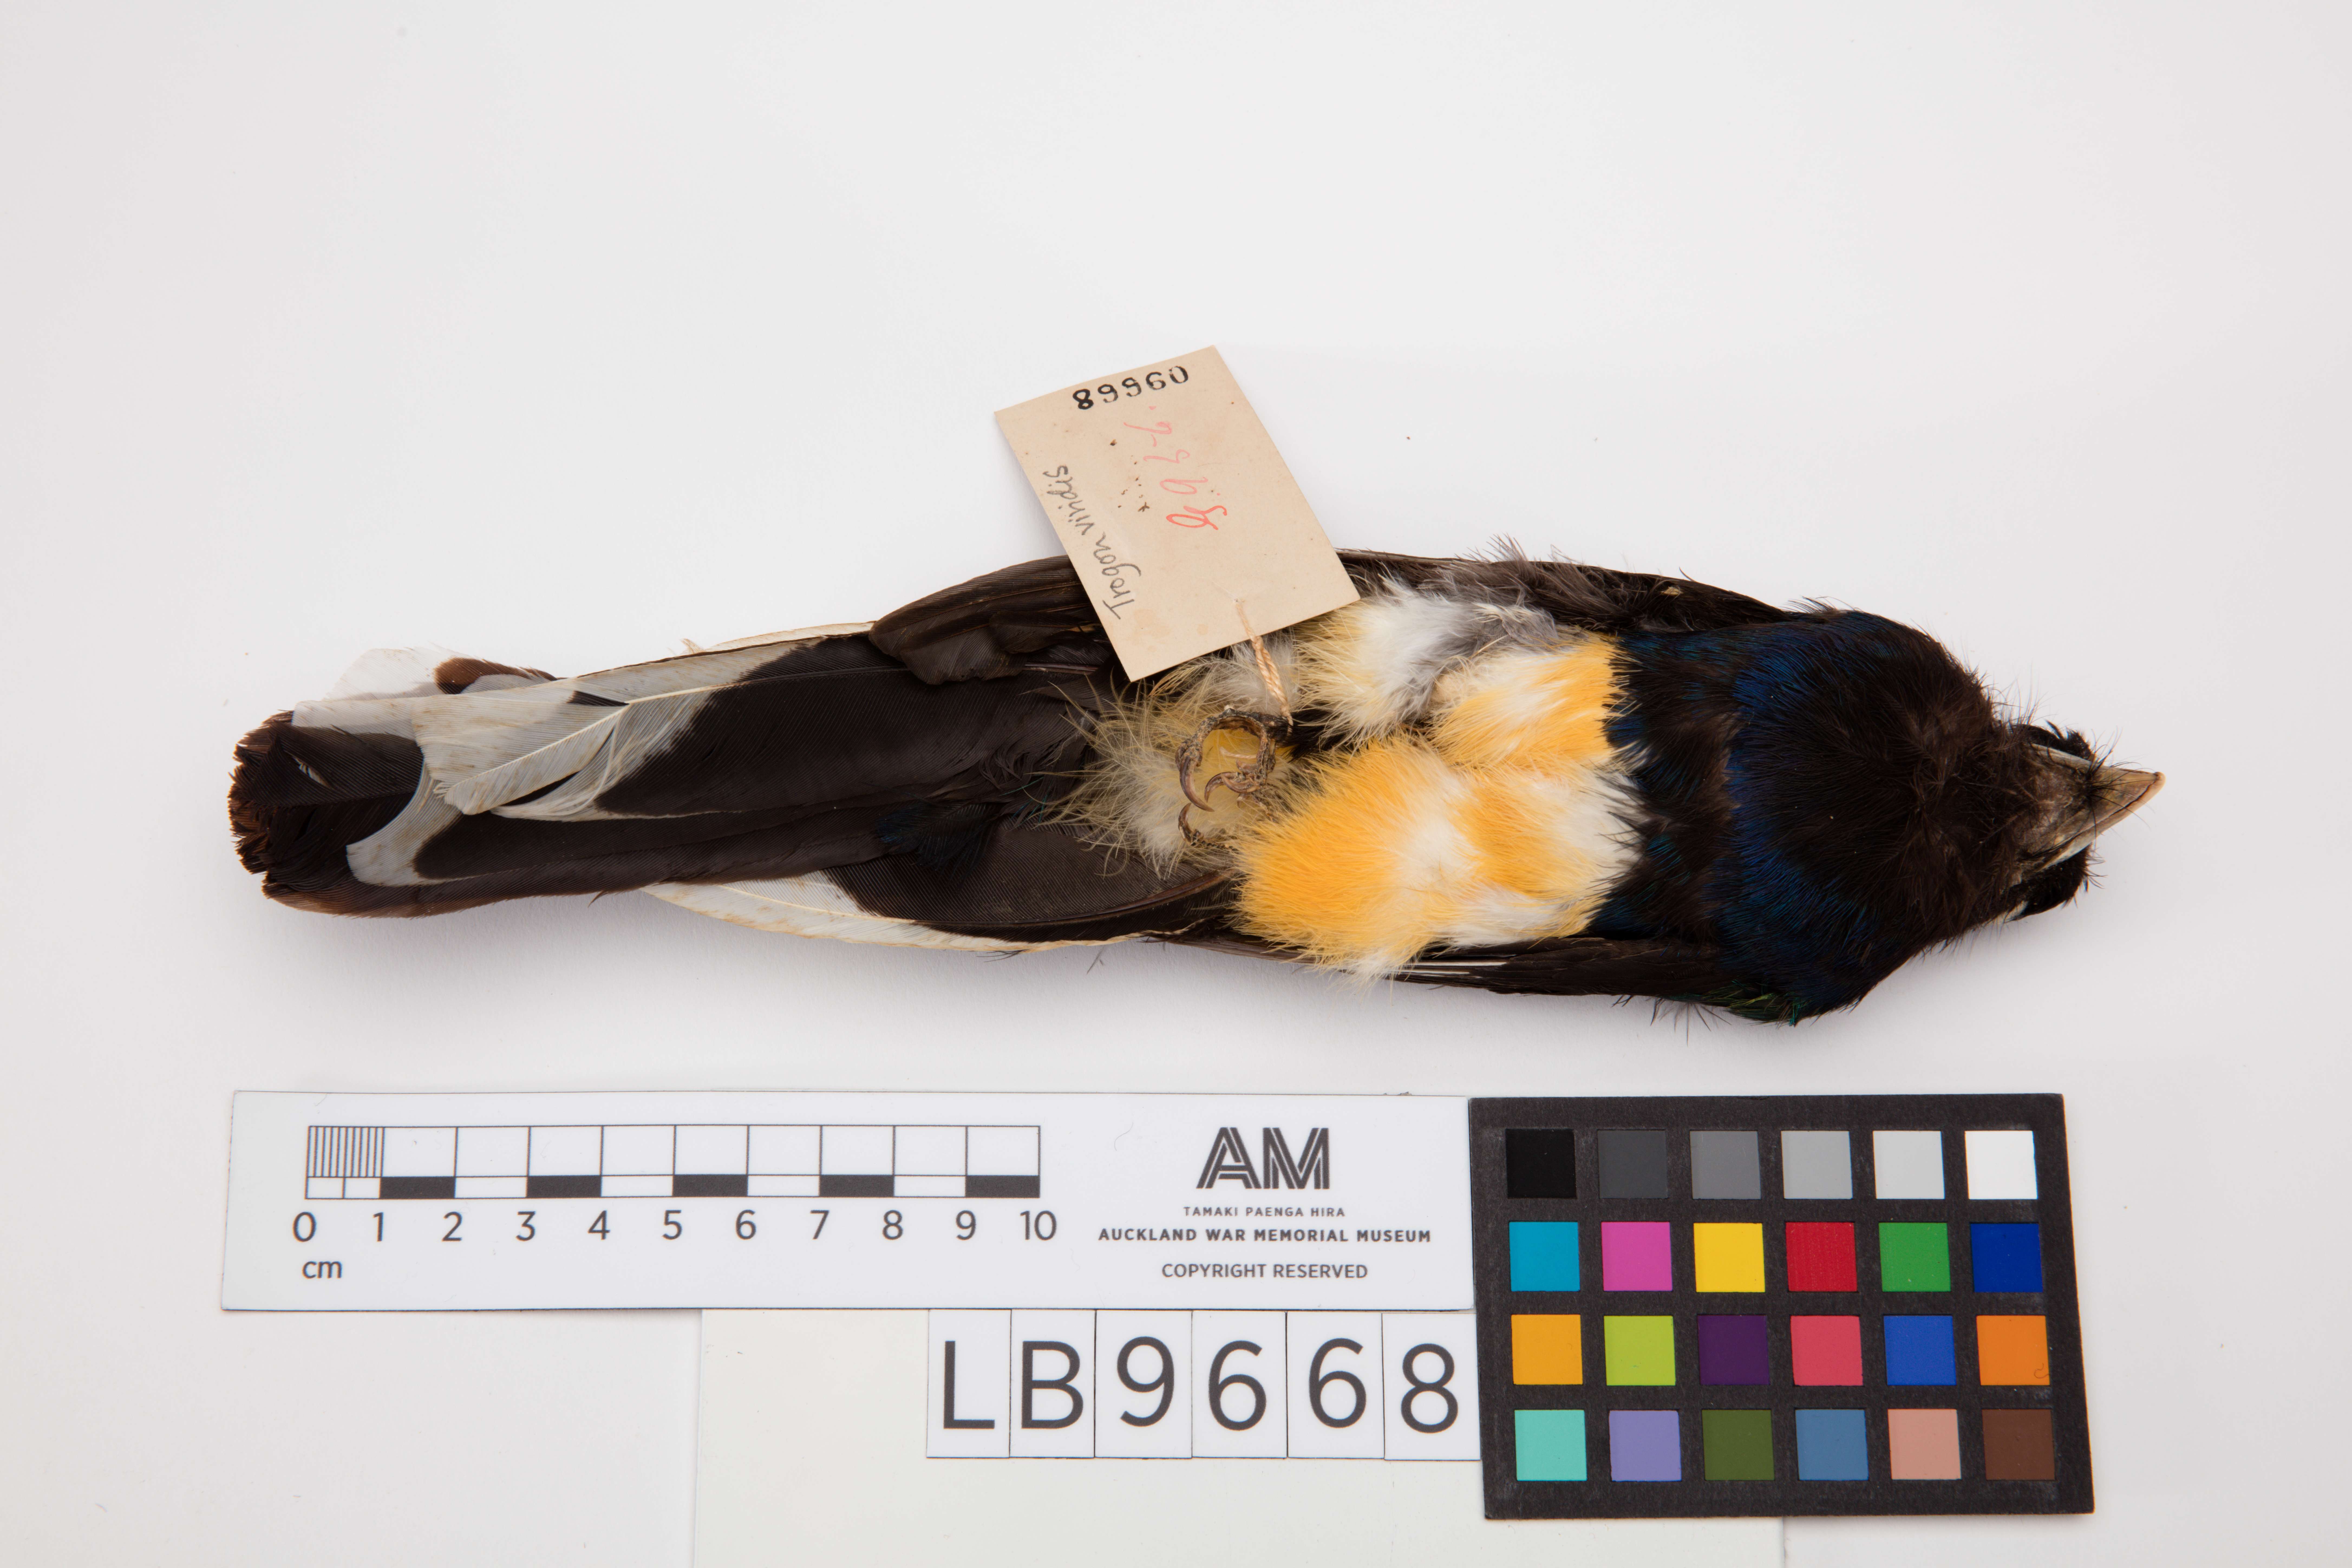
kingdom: Animalia
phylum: Chordata
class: Aves
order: Trogoniformes
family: Trogonidae
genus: Trogon
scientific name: Trogon viridis
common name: Green-backed trogon
